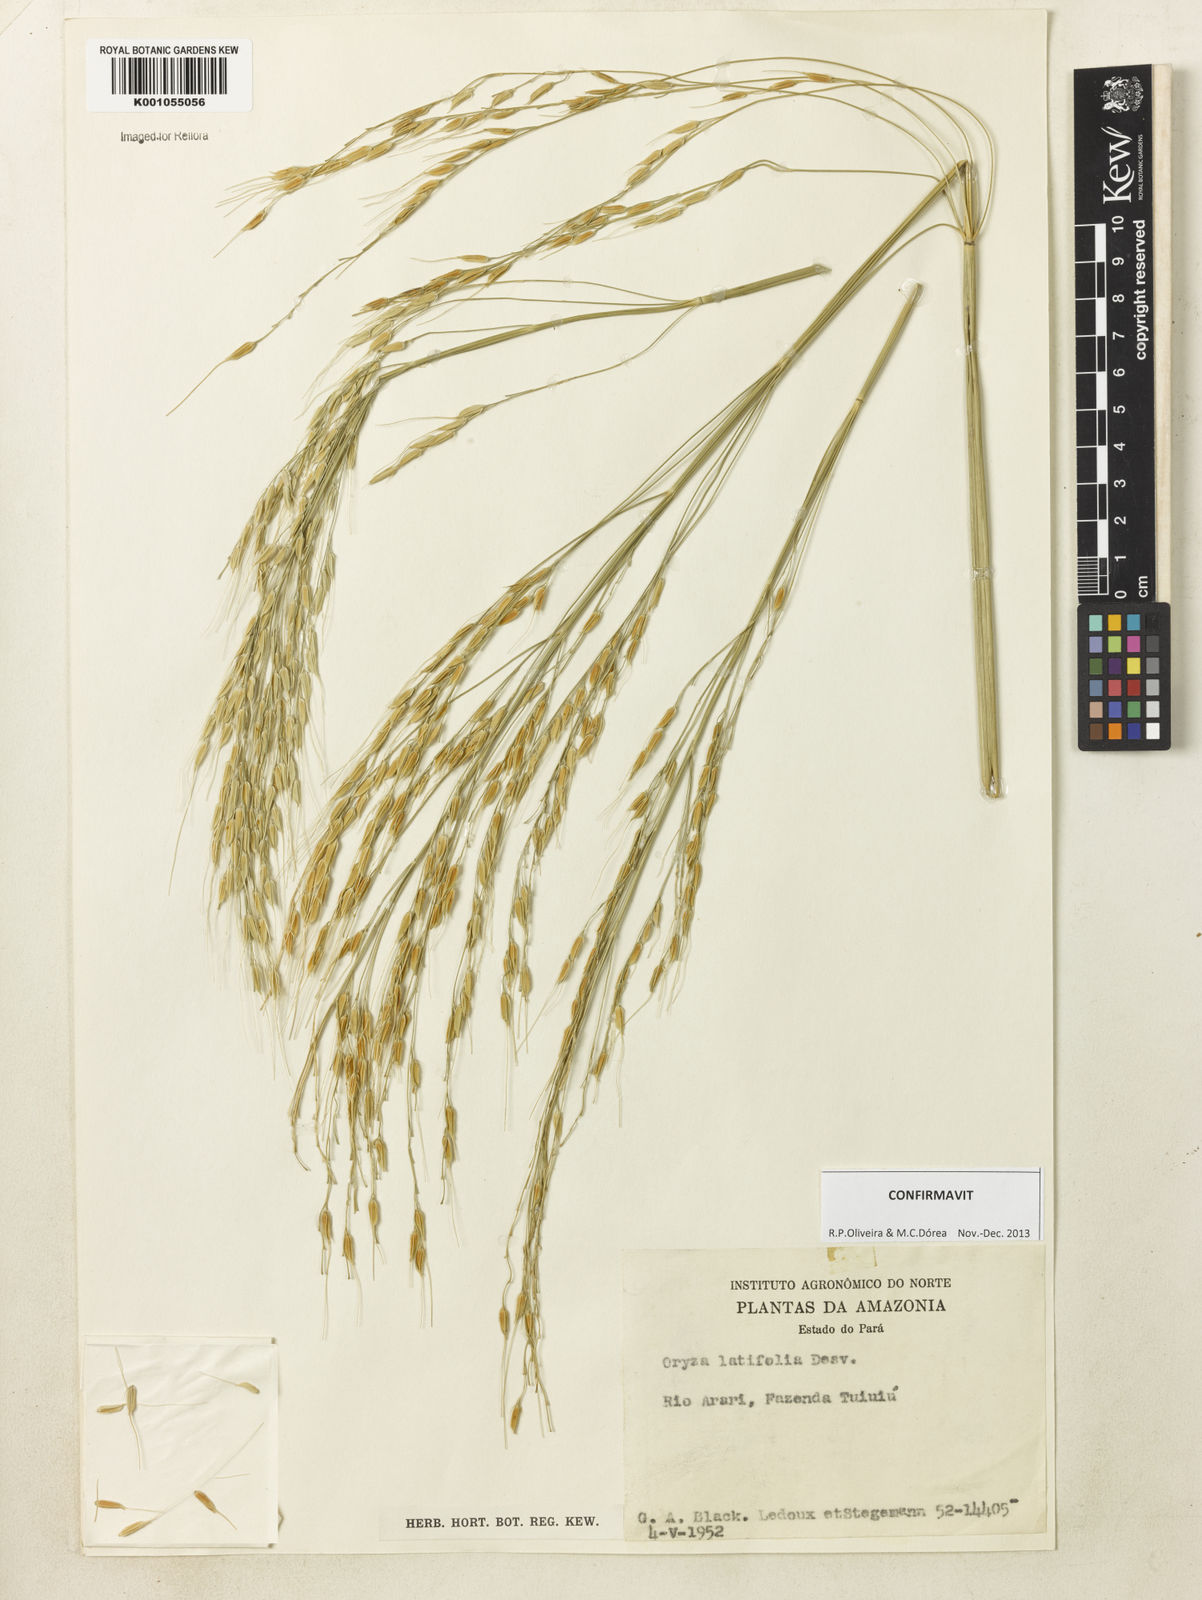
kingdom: Plantae
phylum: Tracheophyta
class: Liliopsida
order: Poales
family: Poaceae
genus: Oryza
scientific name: Oryza latifolia
